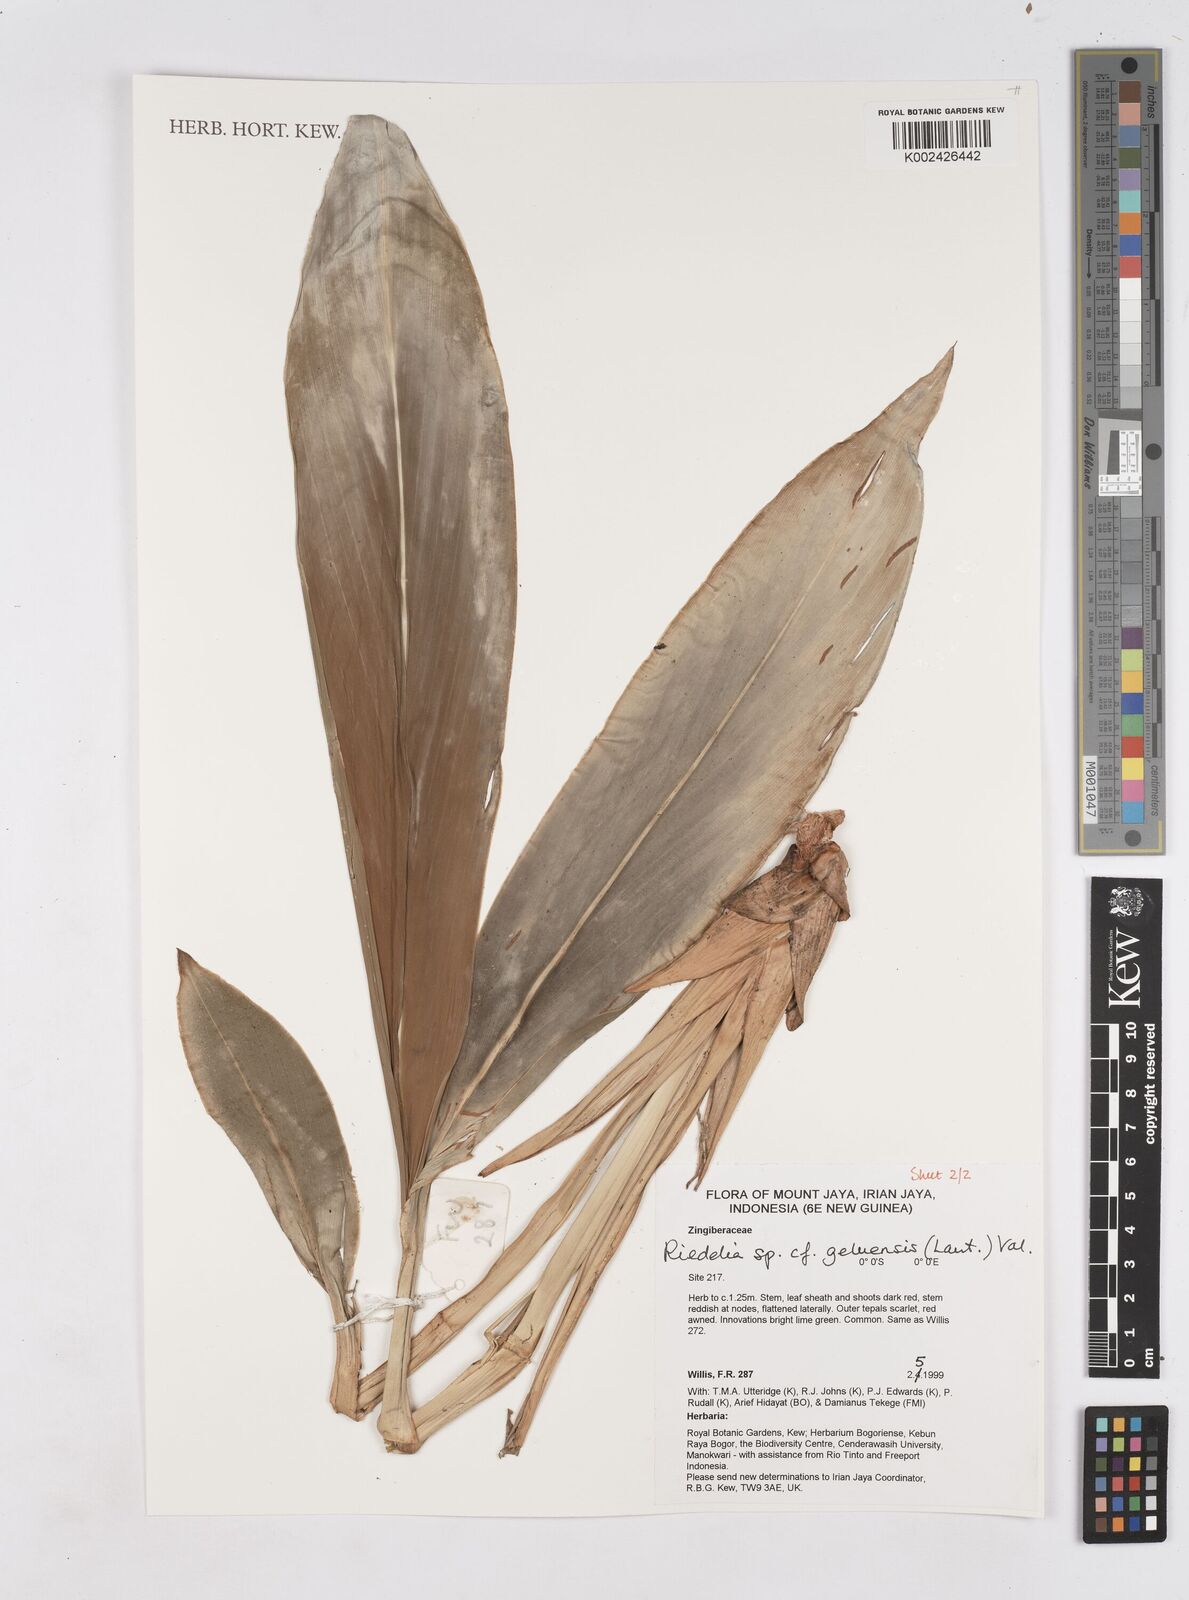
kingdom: Plantae
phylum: Tracheophyta
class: Liliopsida
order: Zingiberales
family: Zingiberaceae
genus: Riedelia
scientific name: Riedelia geluensis
